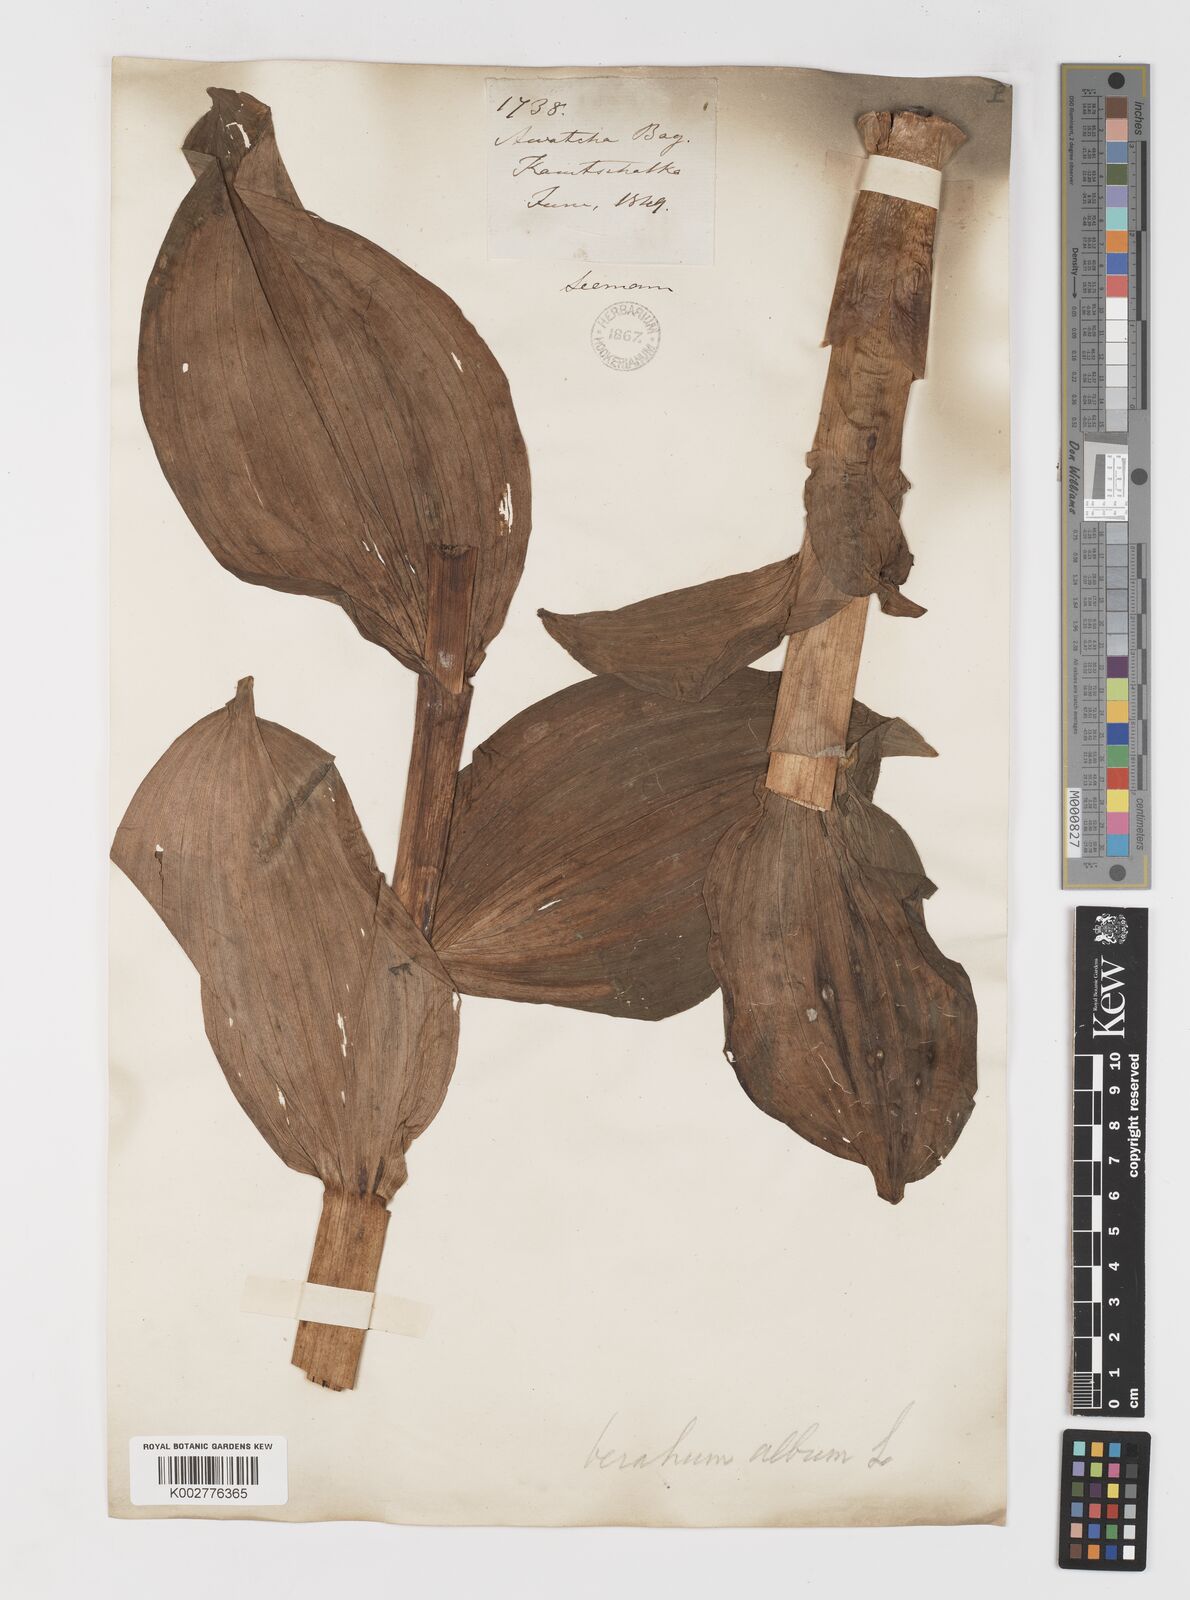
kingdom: Plantae
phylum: Tracheophyta
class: Liliopsida
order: Liliales
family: Melanthiaceae
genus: Veratrum
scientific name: Veratrum
